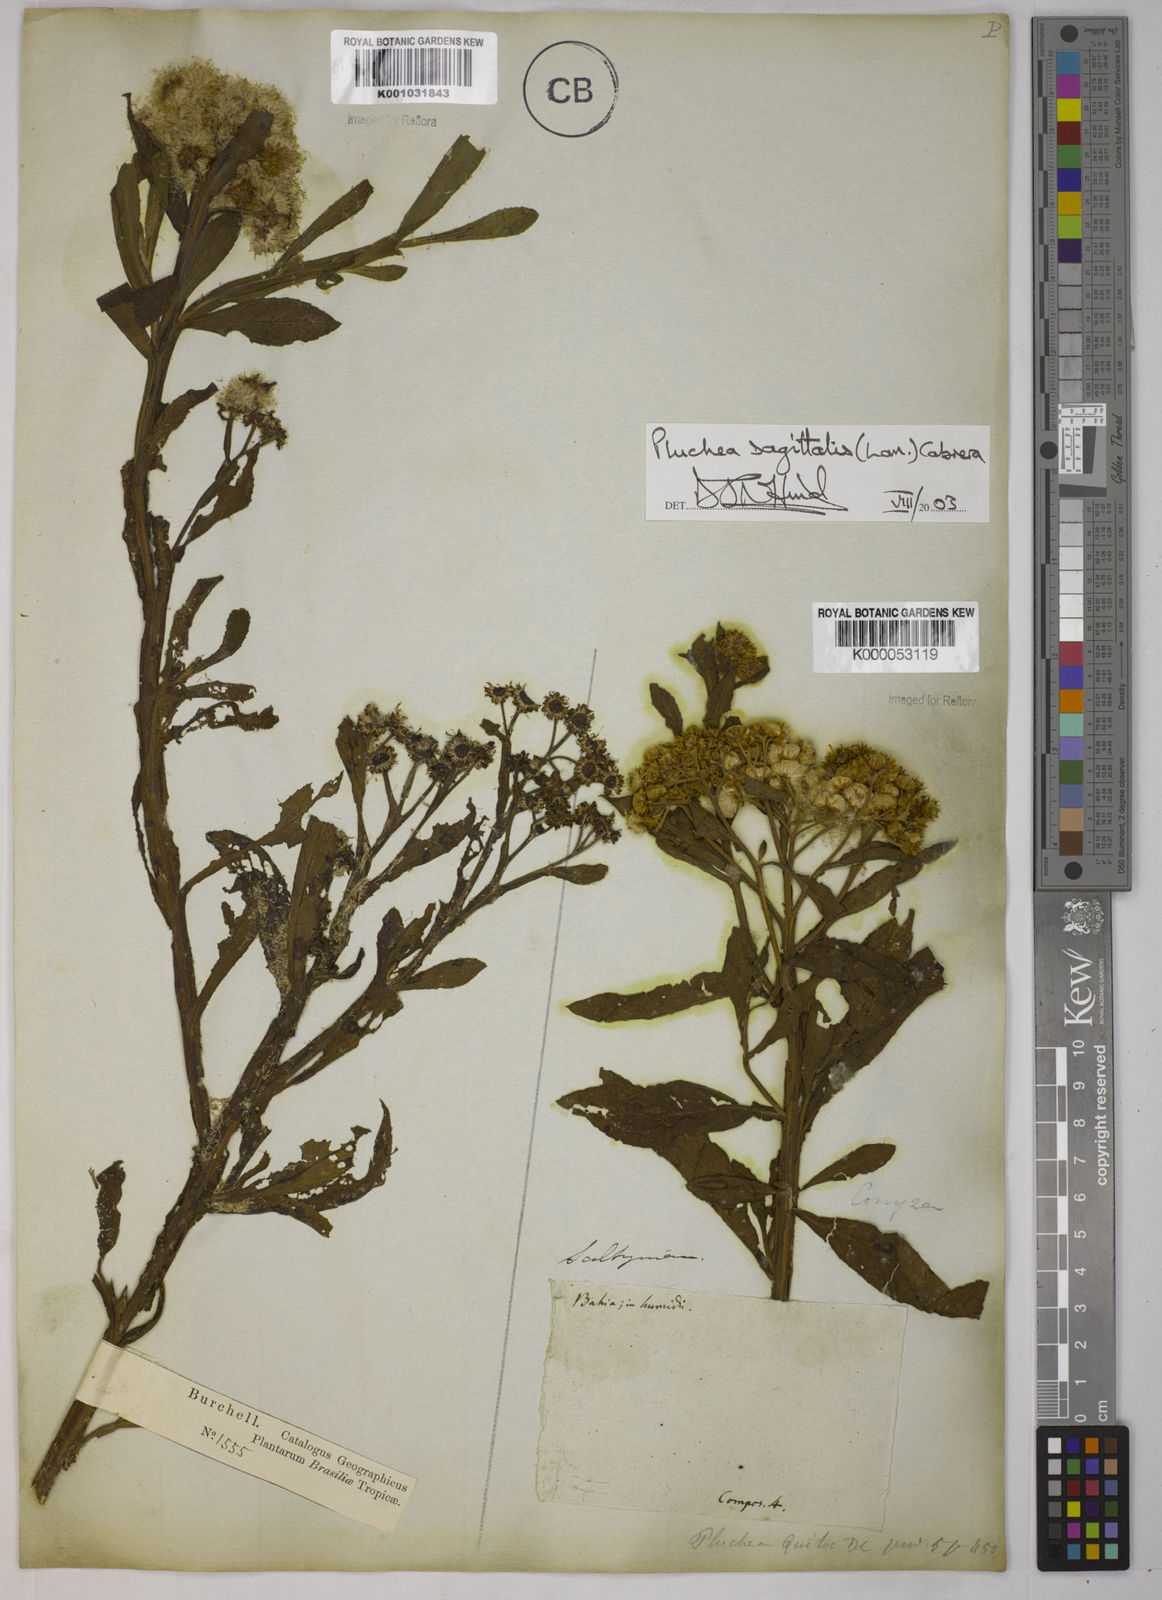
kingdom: Plantae
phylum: Tracheophyta
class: Magnoliopsida
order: Asterales
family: Asteraceae
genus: Pluchea
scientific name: Pluchea sagittalis
